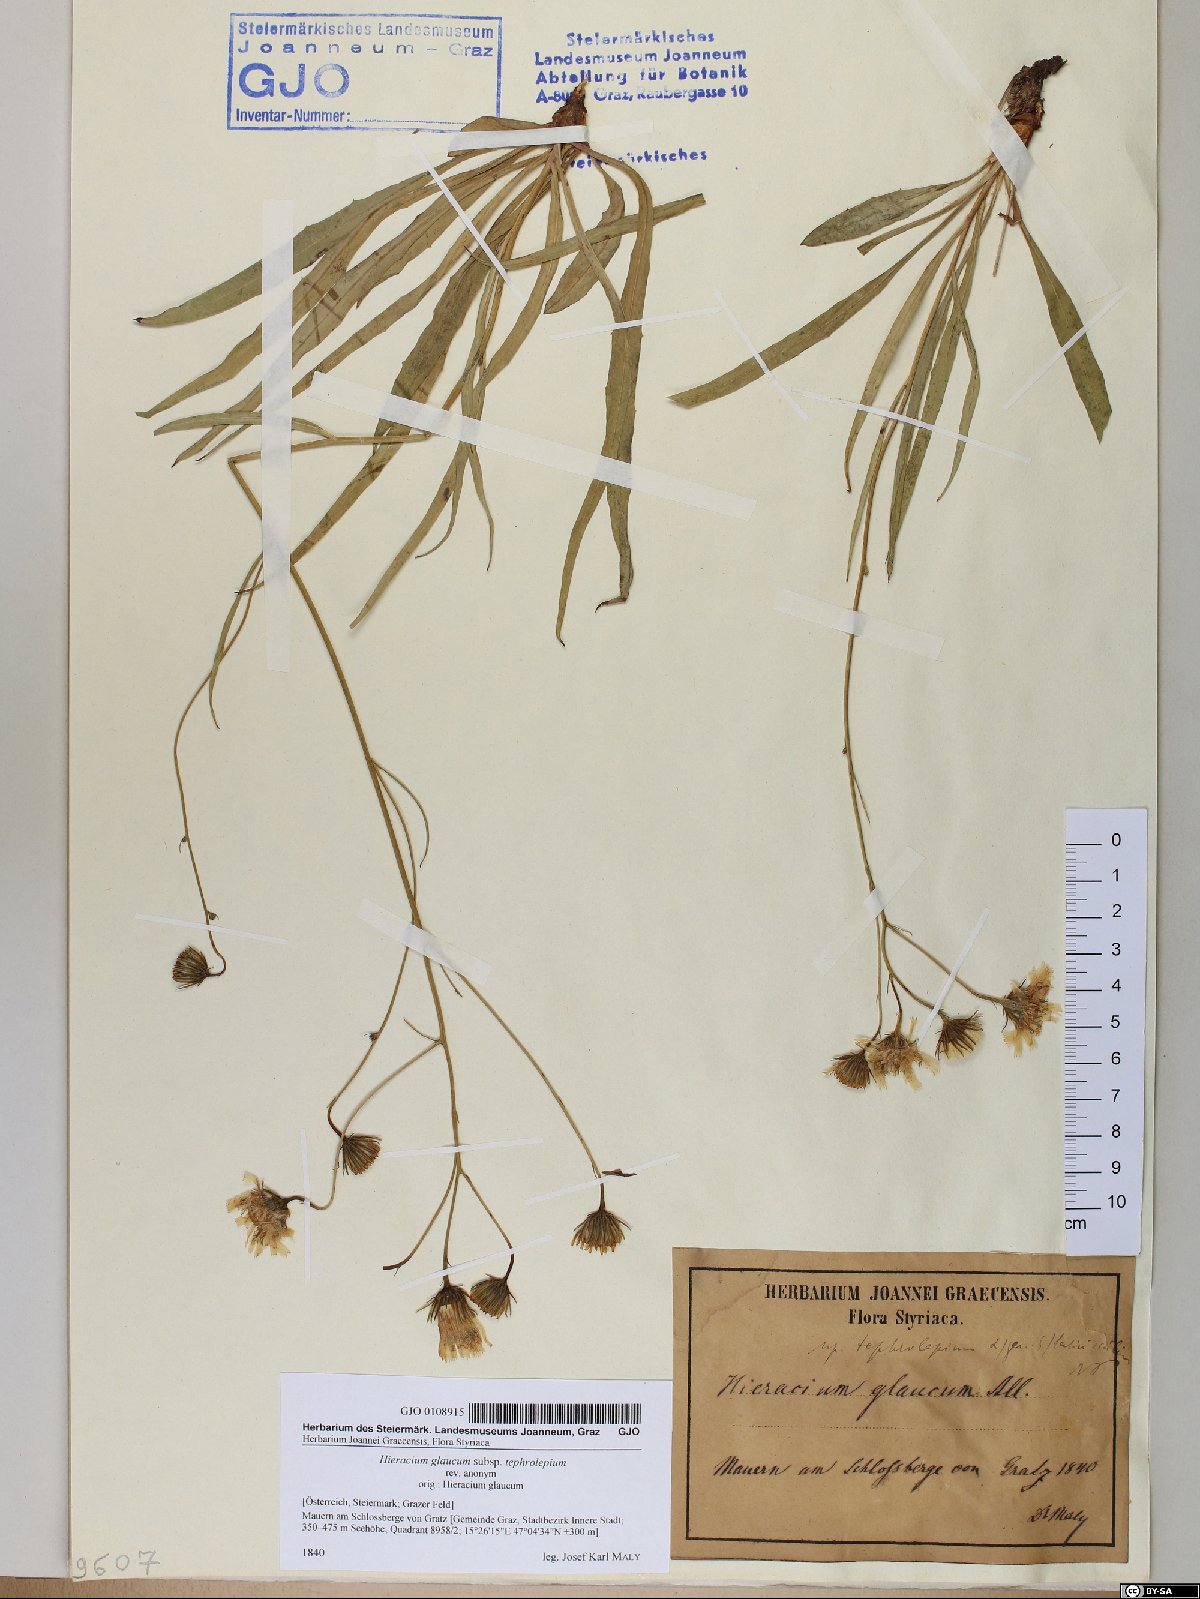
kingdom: Plantae
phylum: Tracheophyta
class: Magnoliopsida
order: Asterales
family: Asteraceae
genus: Hieracium
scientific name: Hieracium glaucum
